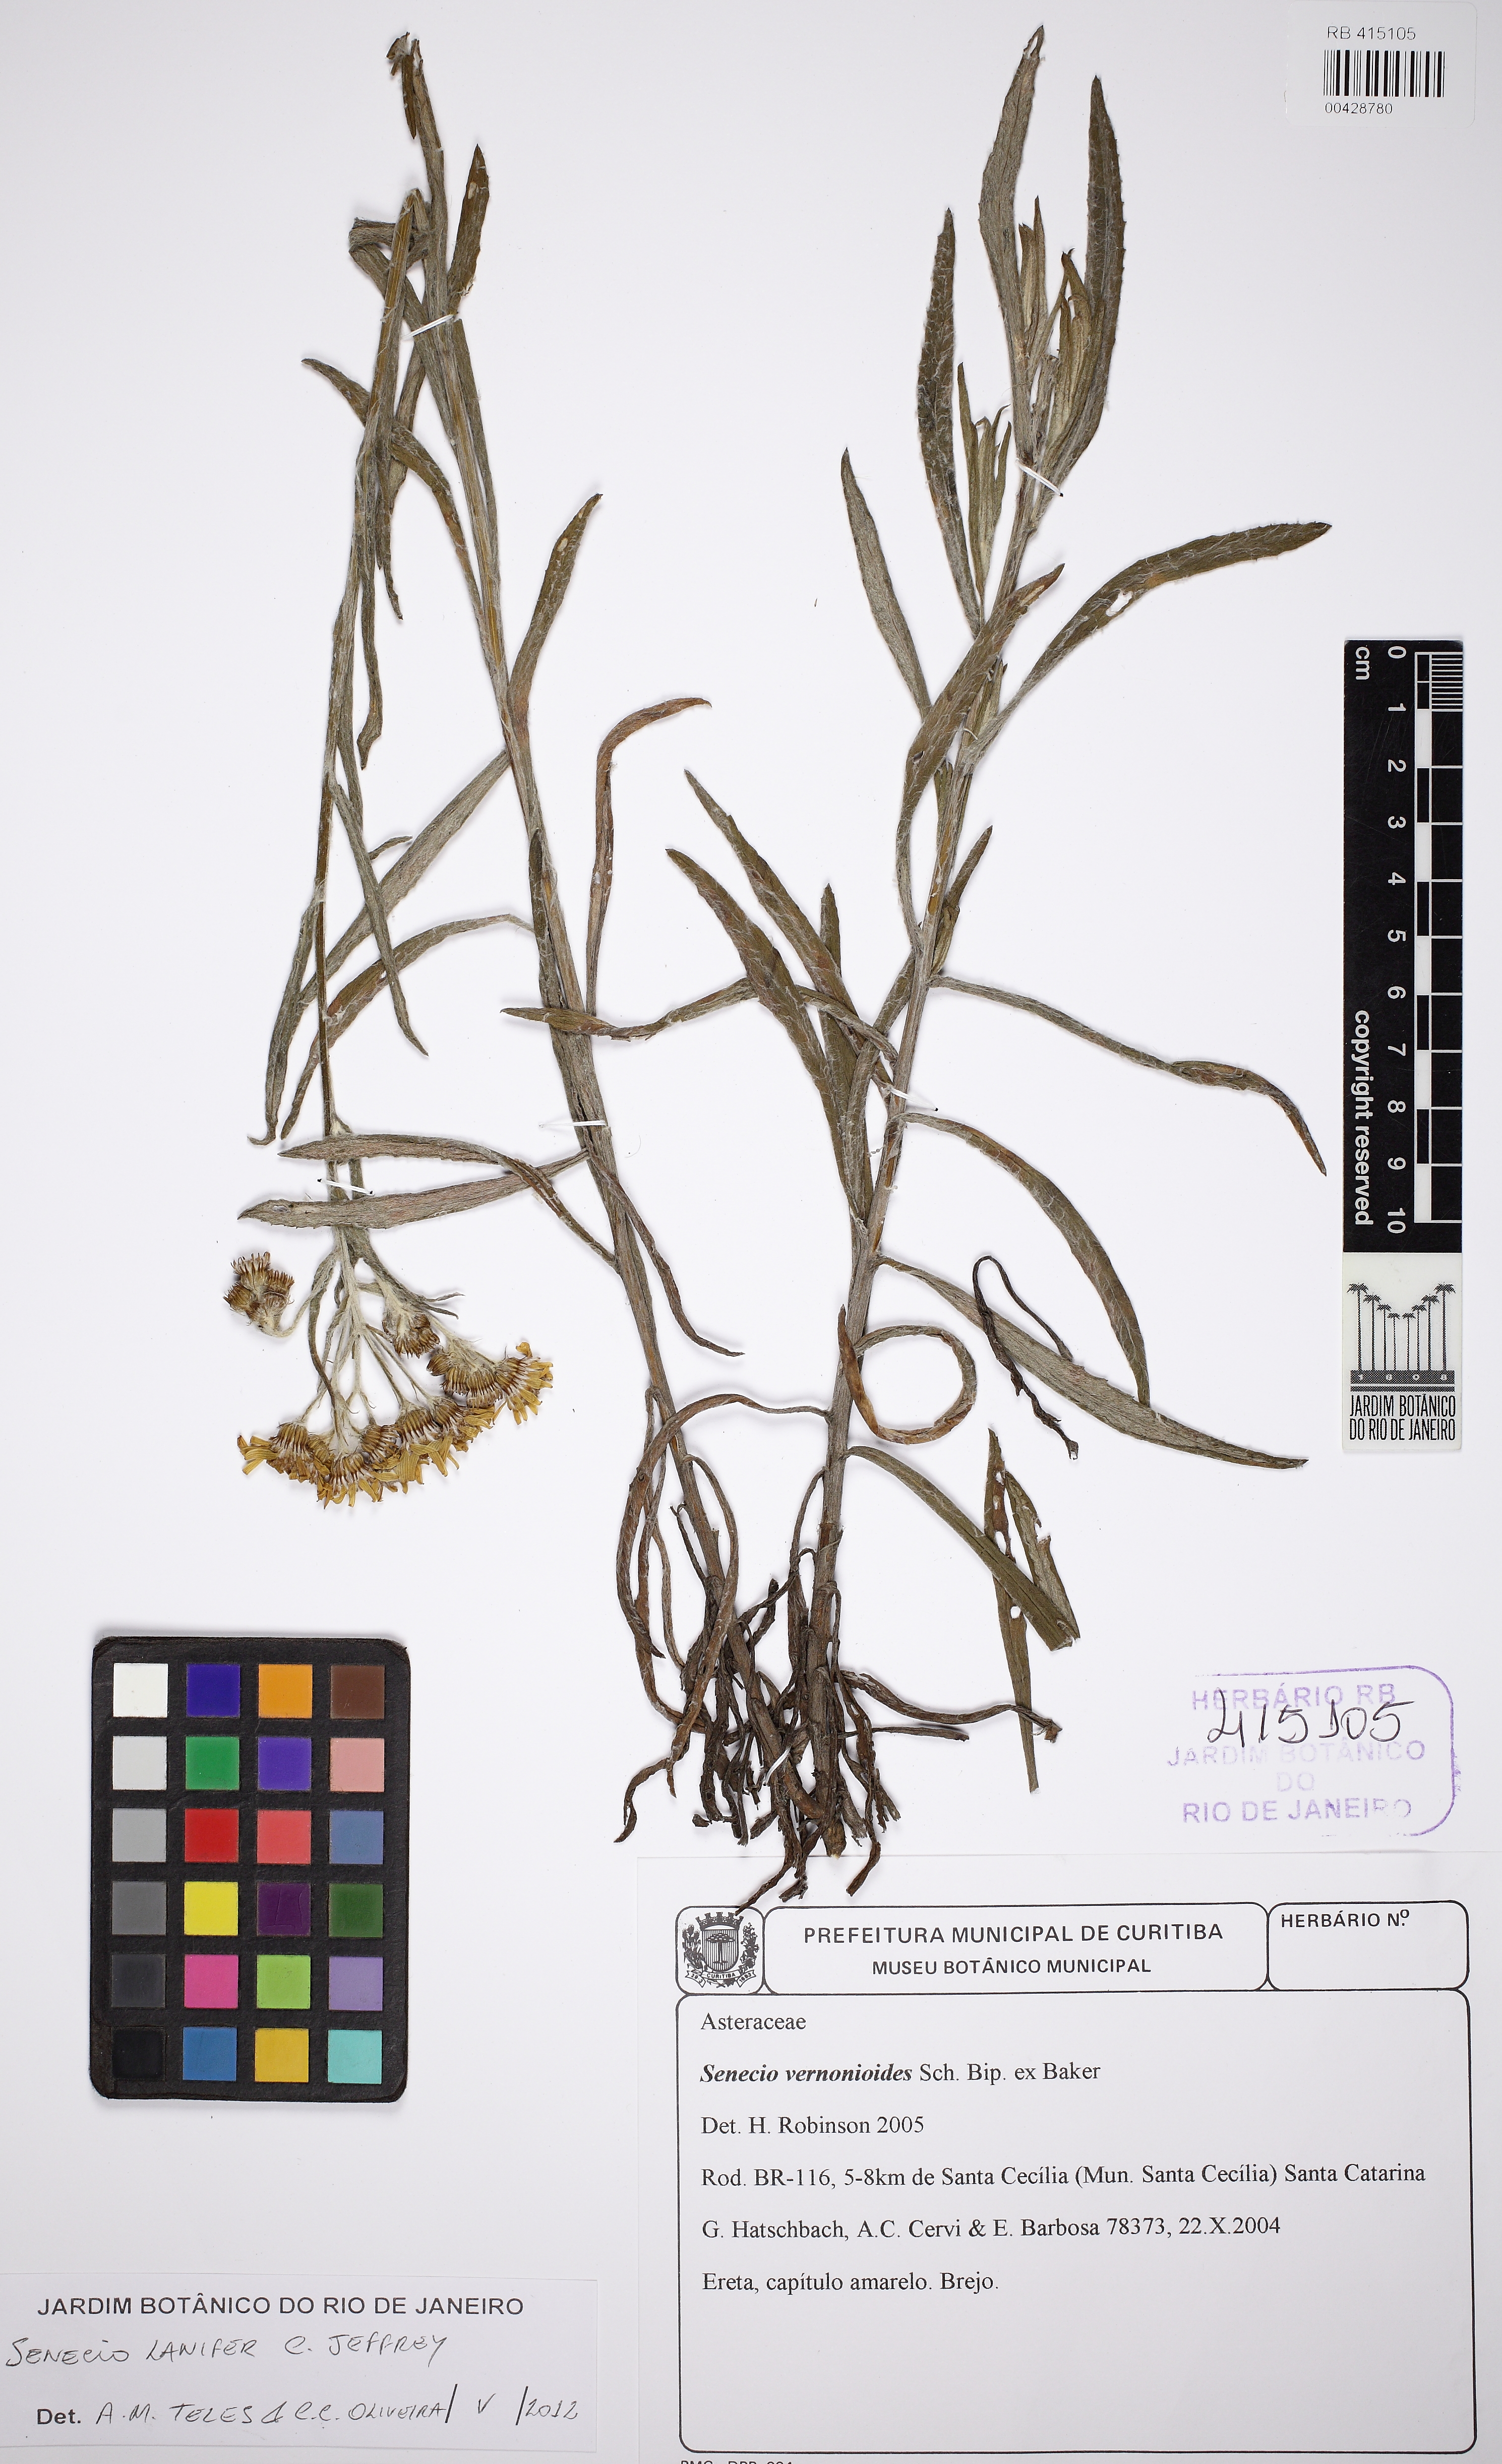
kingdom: Plantae
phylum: Tracheophyta
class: Magnoliopsida
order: Asterales
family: Asteraceae
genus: Senecio
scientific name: Senecio lanifer
